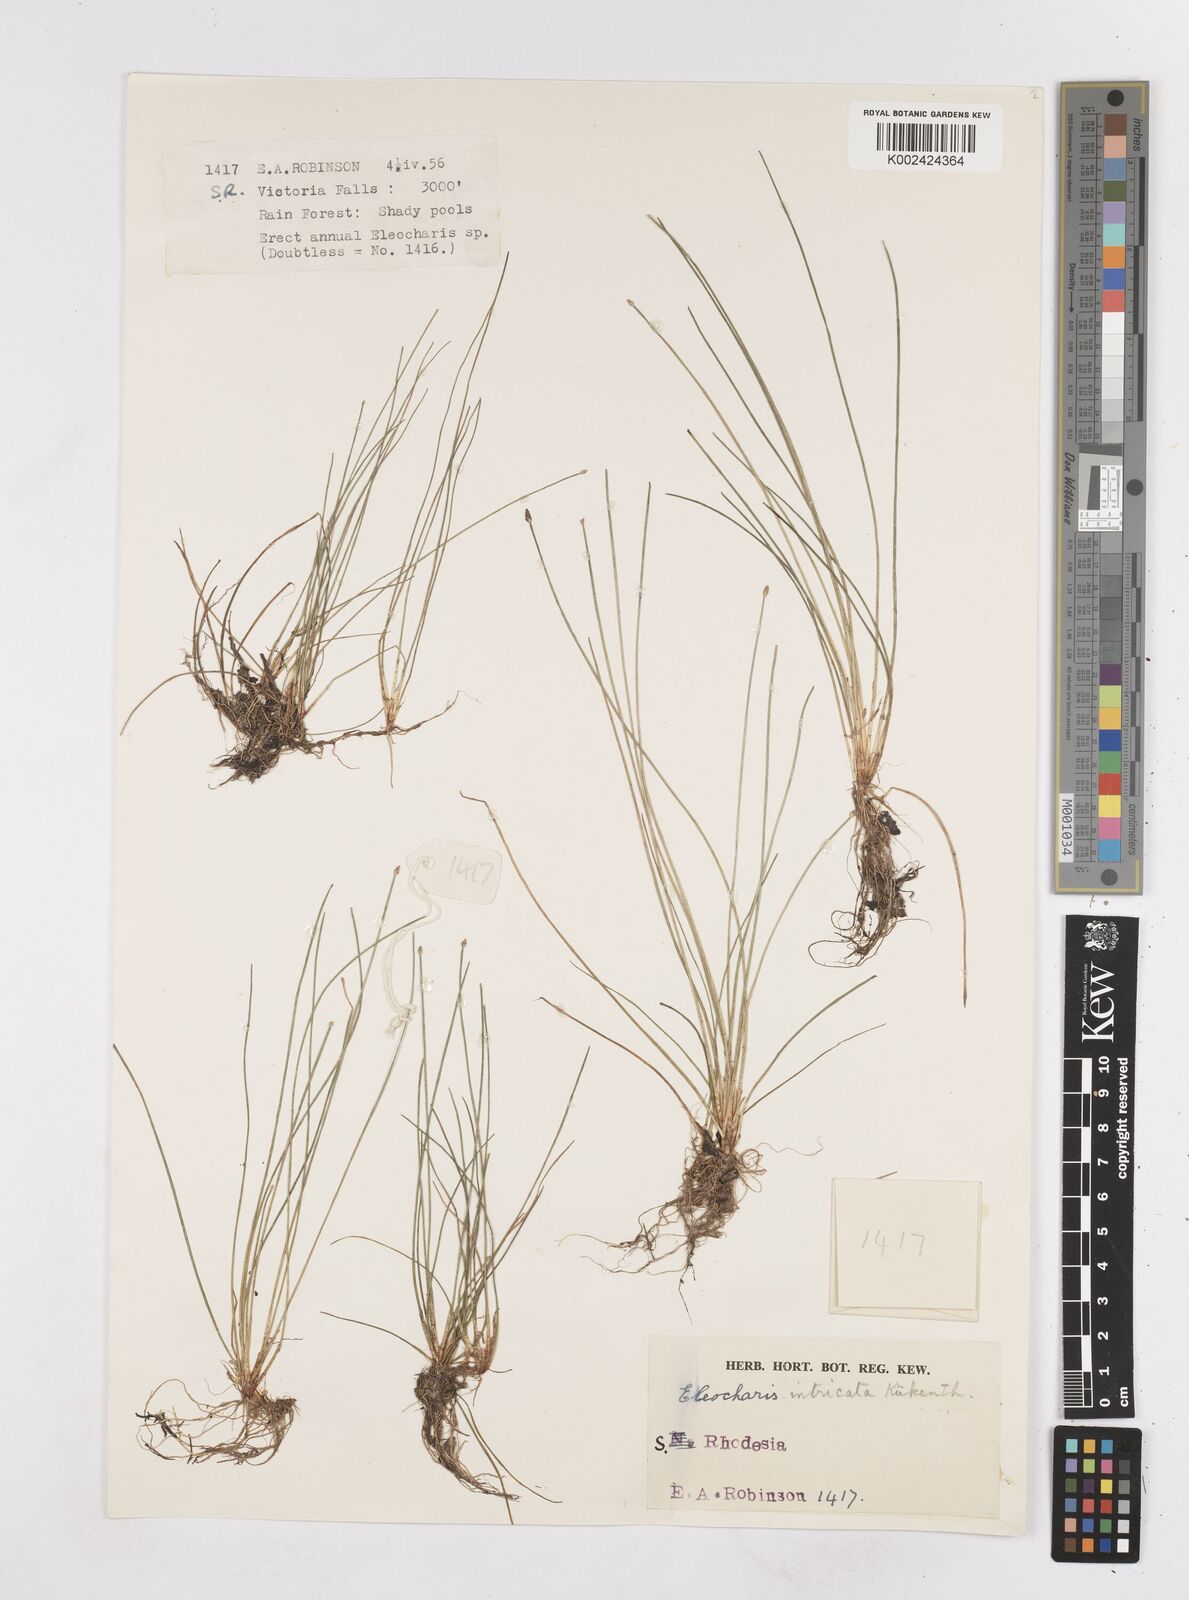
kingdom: Plantae
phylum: Tracheophyta
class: Liliopsida
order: Poales
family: Cyperaceae
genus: Eleocharis
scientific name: Eleocharis caduca
